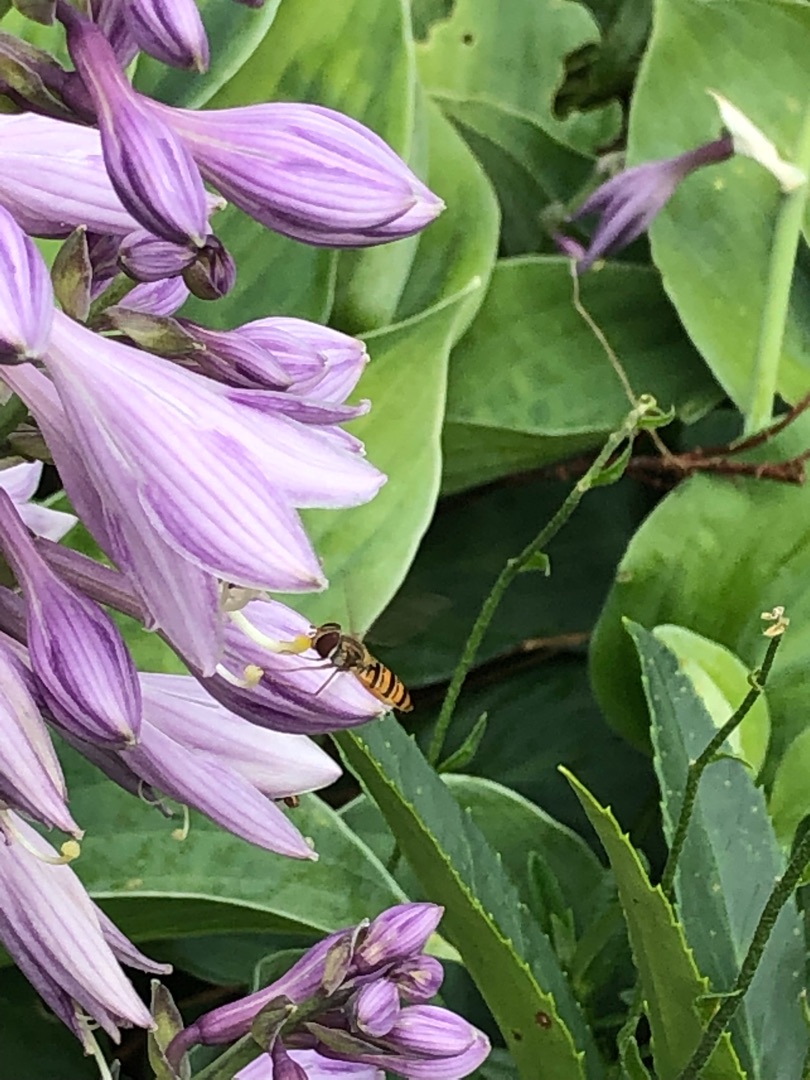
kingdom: Animalia
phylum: Arthropoda
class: Insecta
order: Diptera
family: Syrphidae
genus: Episyrphus
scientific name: Episyrphus balteatus
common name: Dobbeltbåndet svirreflue
